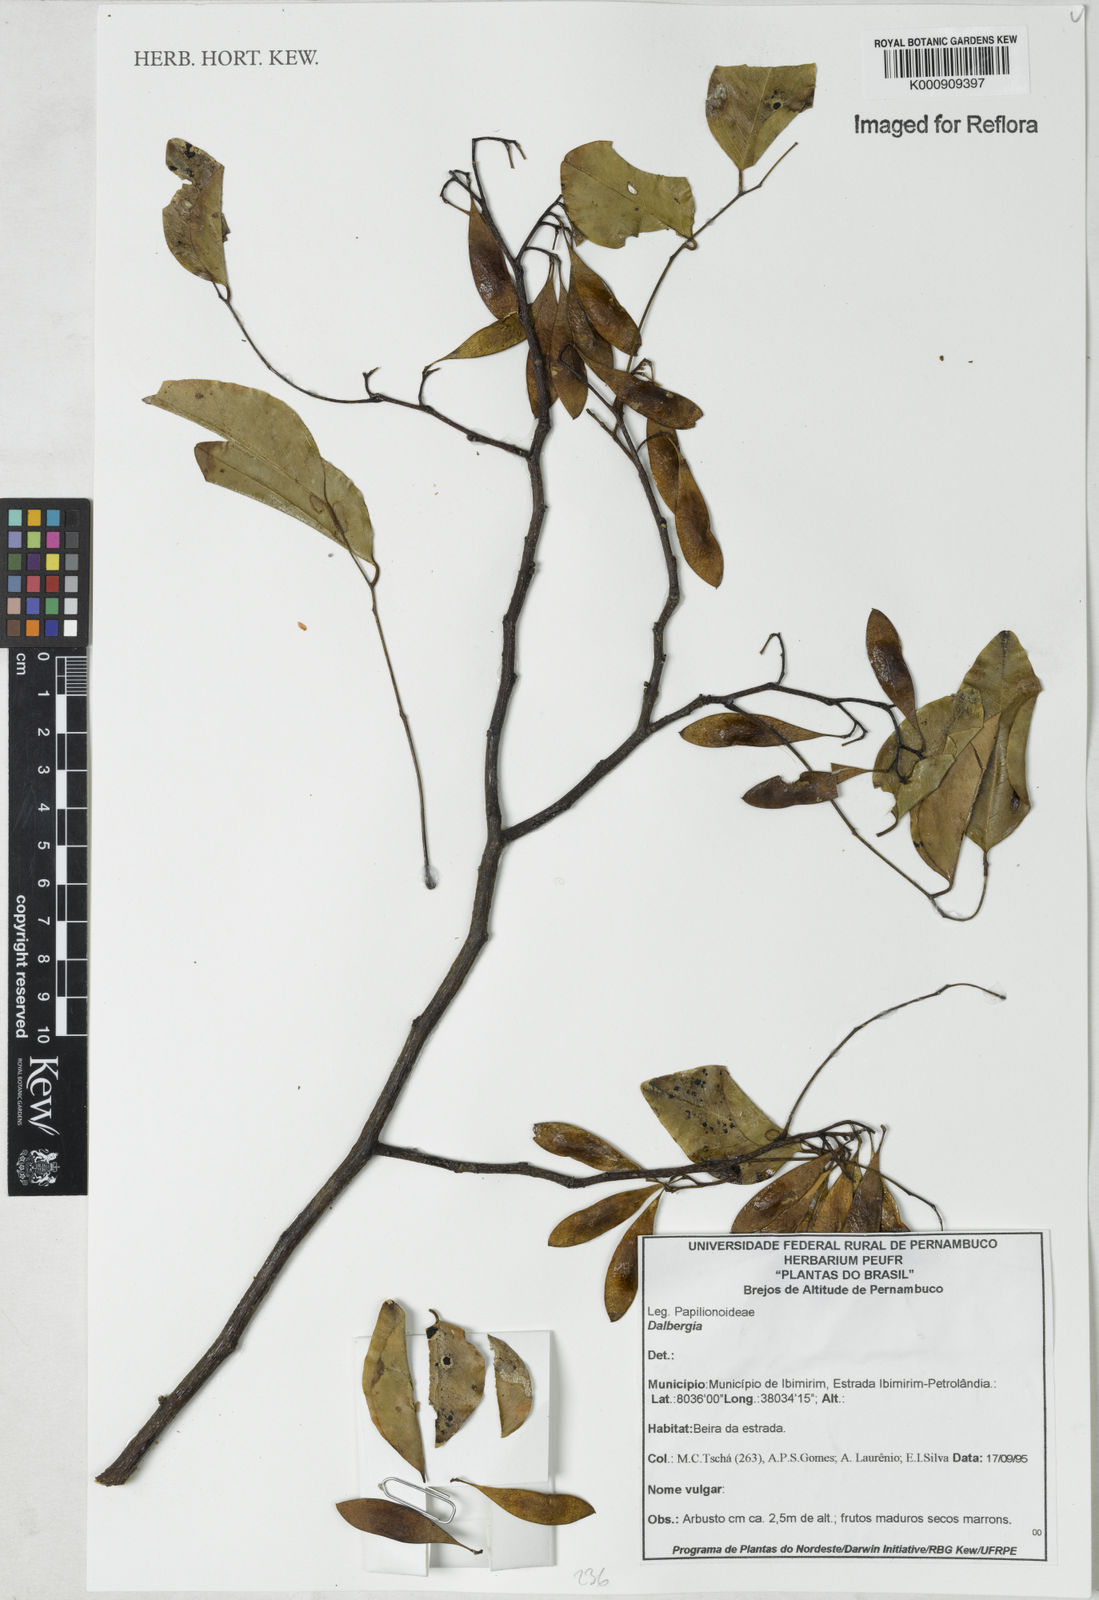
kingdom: Plantae
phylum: Tracheophyta
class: Magnoliopsida
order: Fabales
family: Fabaceae
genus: Dalbergia
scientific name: Dalbergia
